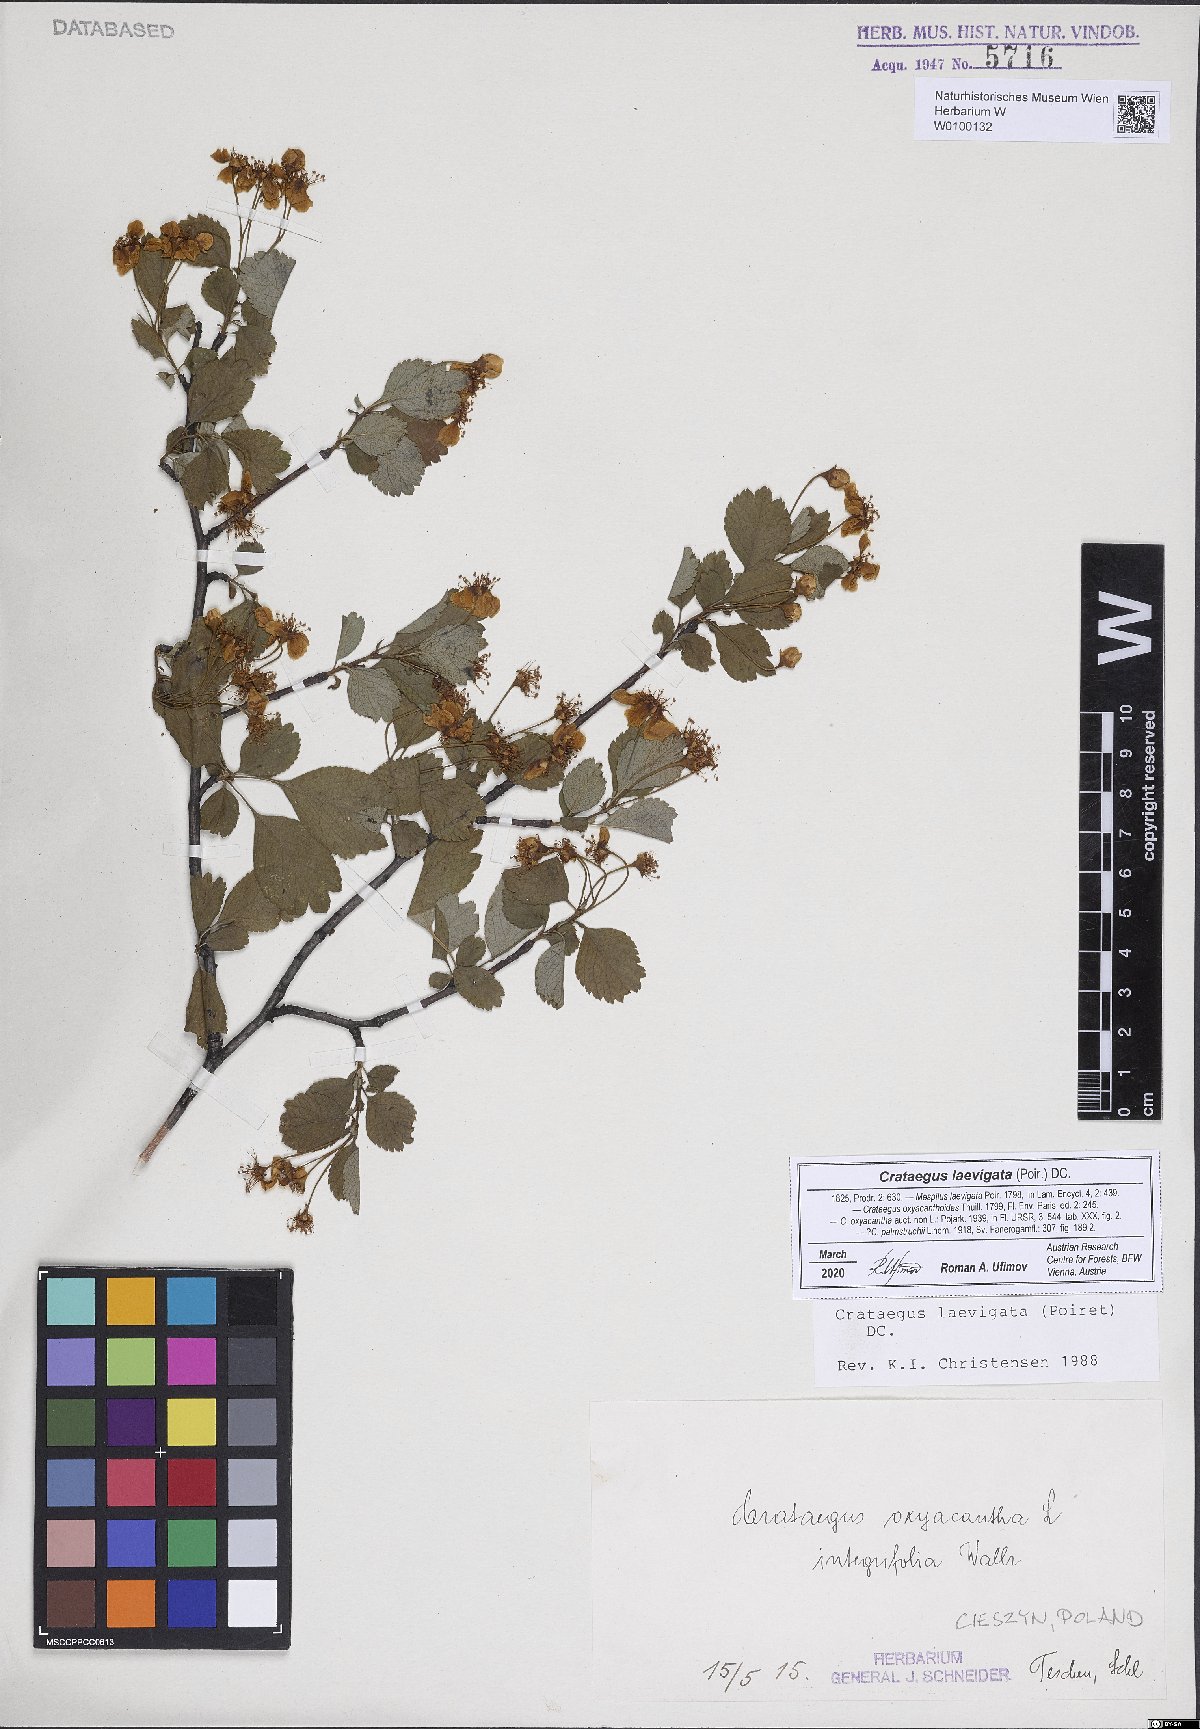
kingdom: Plantae
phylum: Tracheophyta
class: Magnoliopsida
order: Rosales
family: Rosaceae
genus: Crataegus
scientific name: Crataegus laevigata
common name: Midland hawthorn
